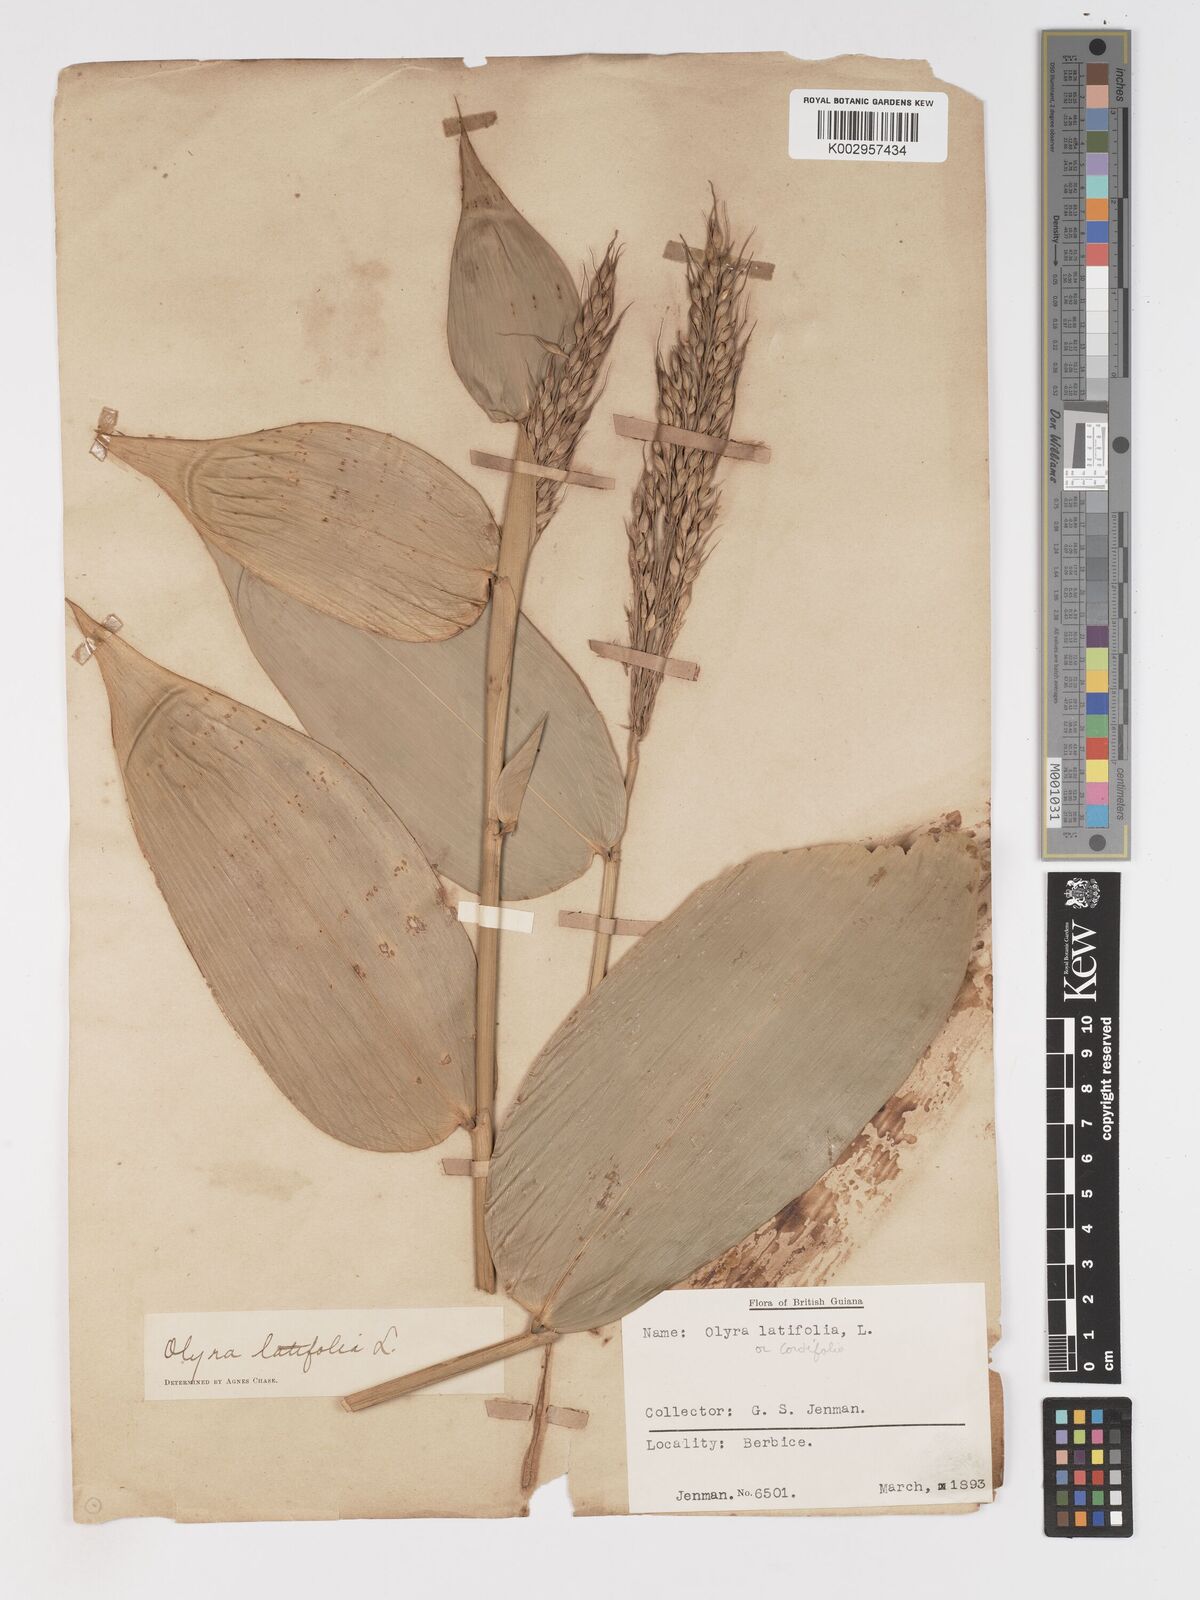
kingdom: Plantae
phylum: Tracheophyta
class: Liliopsida
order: Poales
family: Poaceae
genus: Olyra
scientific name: Olyra latifolia
